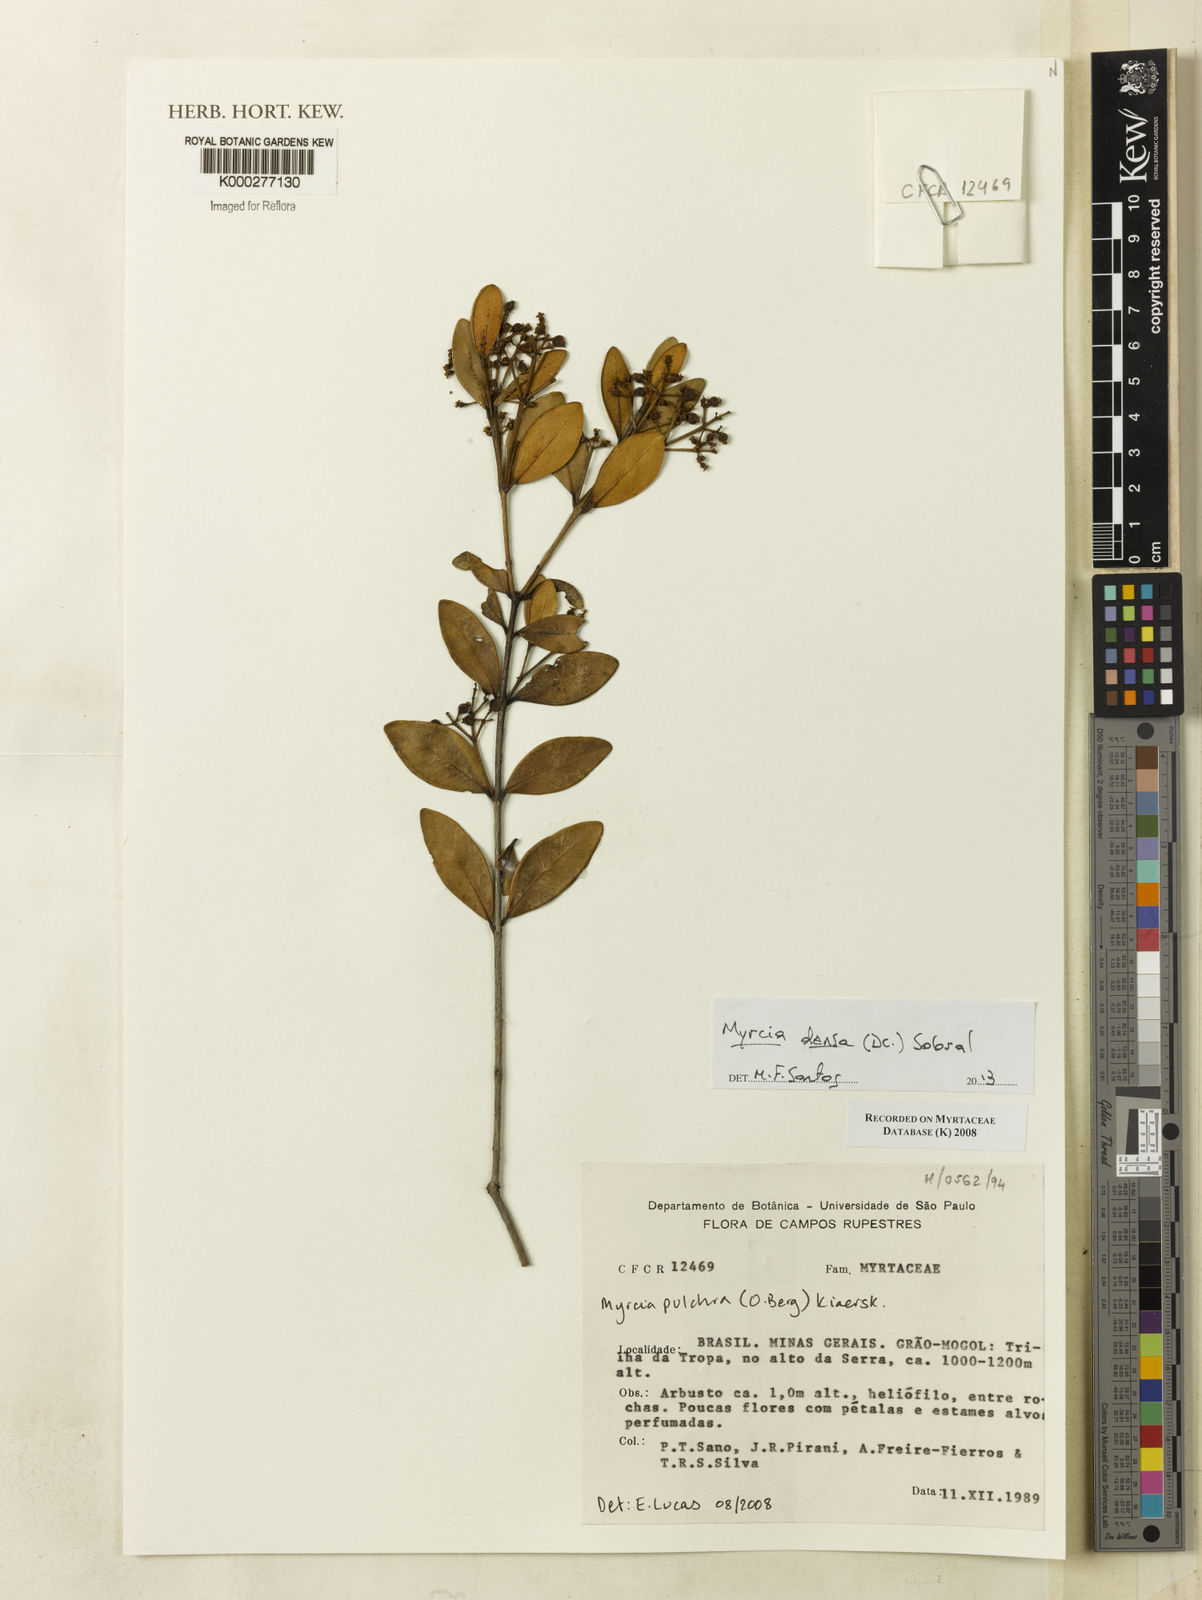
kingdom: Plantae
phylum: Tracheophyta
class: Magnoliopsida
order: Myrtales
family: Myrtaceae
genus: Myrcia
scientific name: Myrcia pulchra
